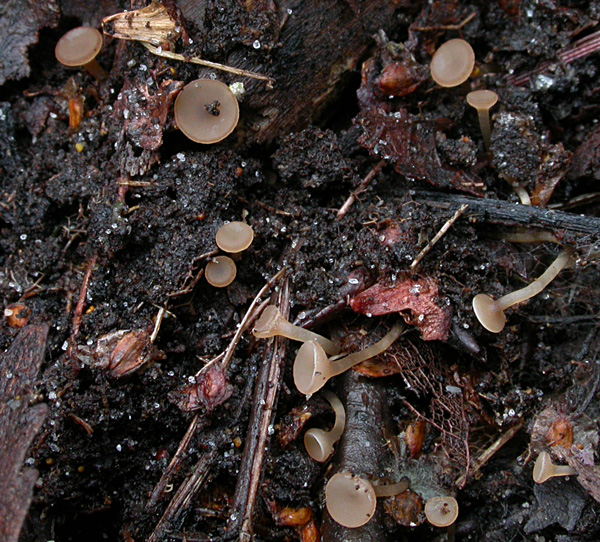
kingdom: Fungi
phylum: Ascomycota
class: Leotiomycetes
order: Helotiales
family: Sclerotiniaceae
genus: Ciboria
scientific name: Ciboria betulae
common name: birkefrø-knoldskive
